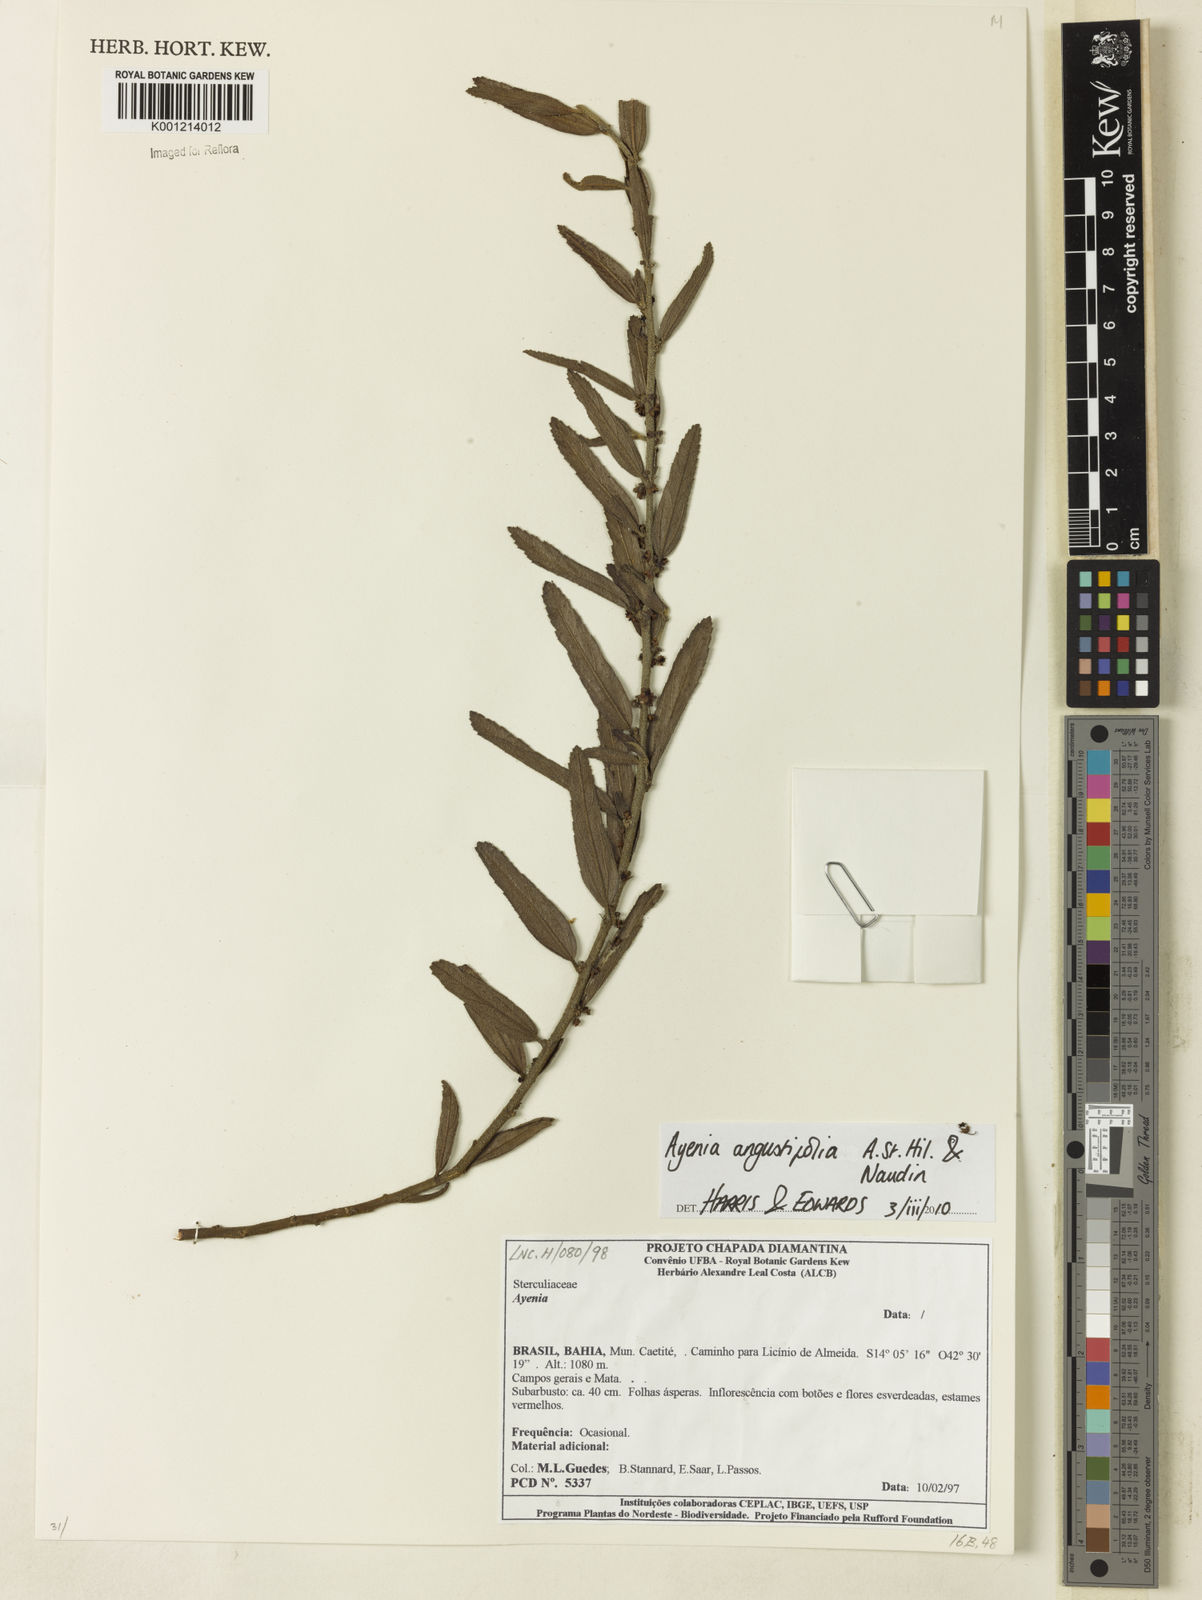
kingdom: Plantae
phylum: Tracheophyta
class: Magnoliopsida
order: Malvales
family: Malvaceae
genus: Ayenia
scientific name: Ayenia angustifolia
